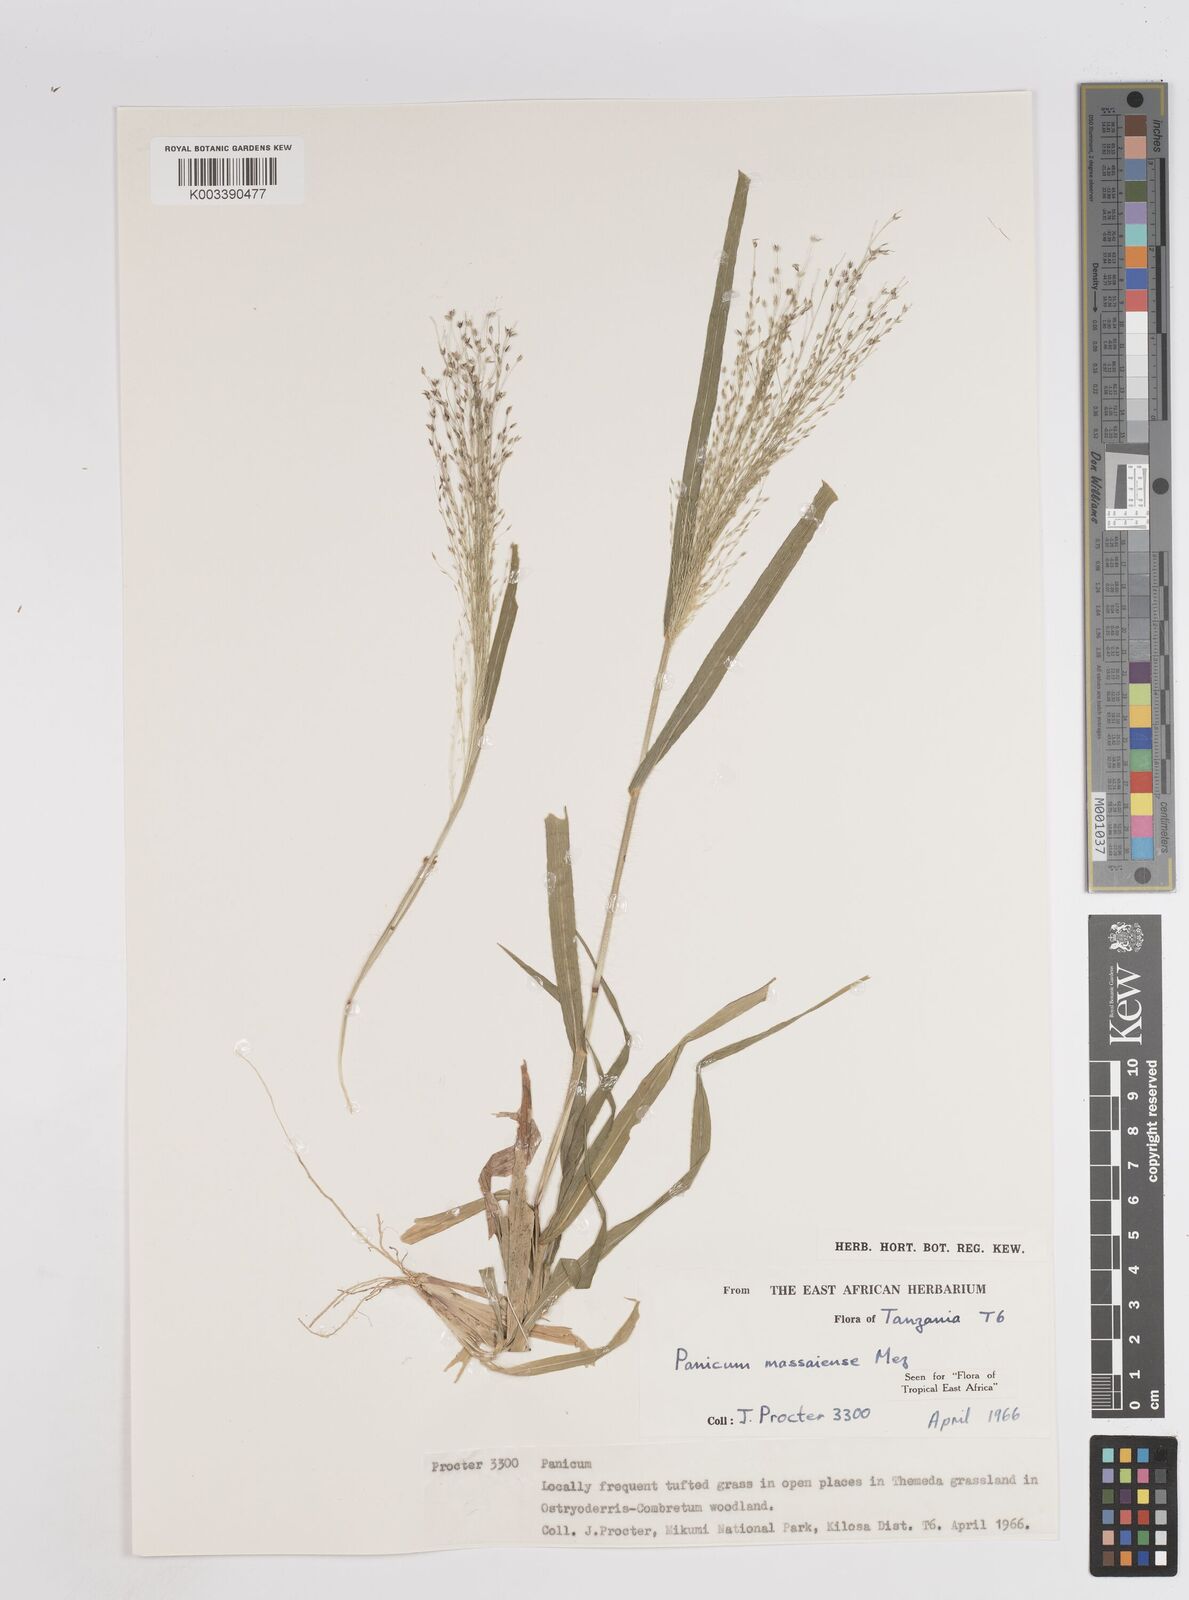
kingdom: Plantae
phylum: Tracheophyta
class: Liliopsida
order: Poales
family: Poaceae
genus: Panicum
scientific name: Panicum massaiense
